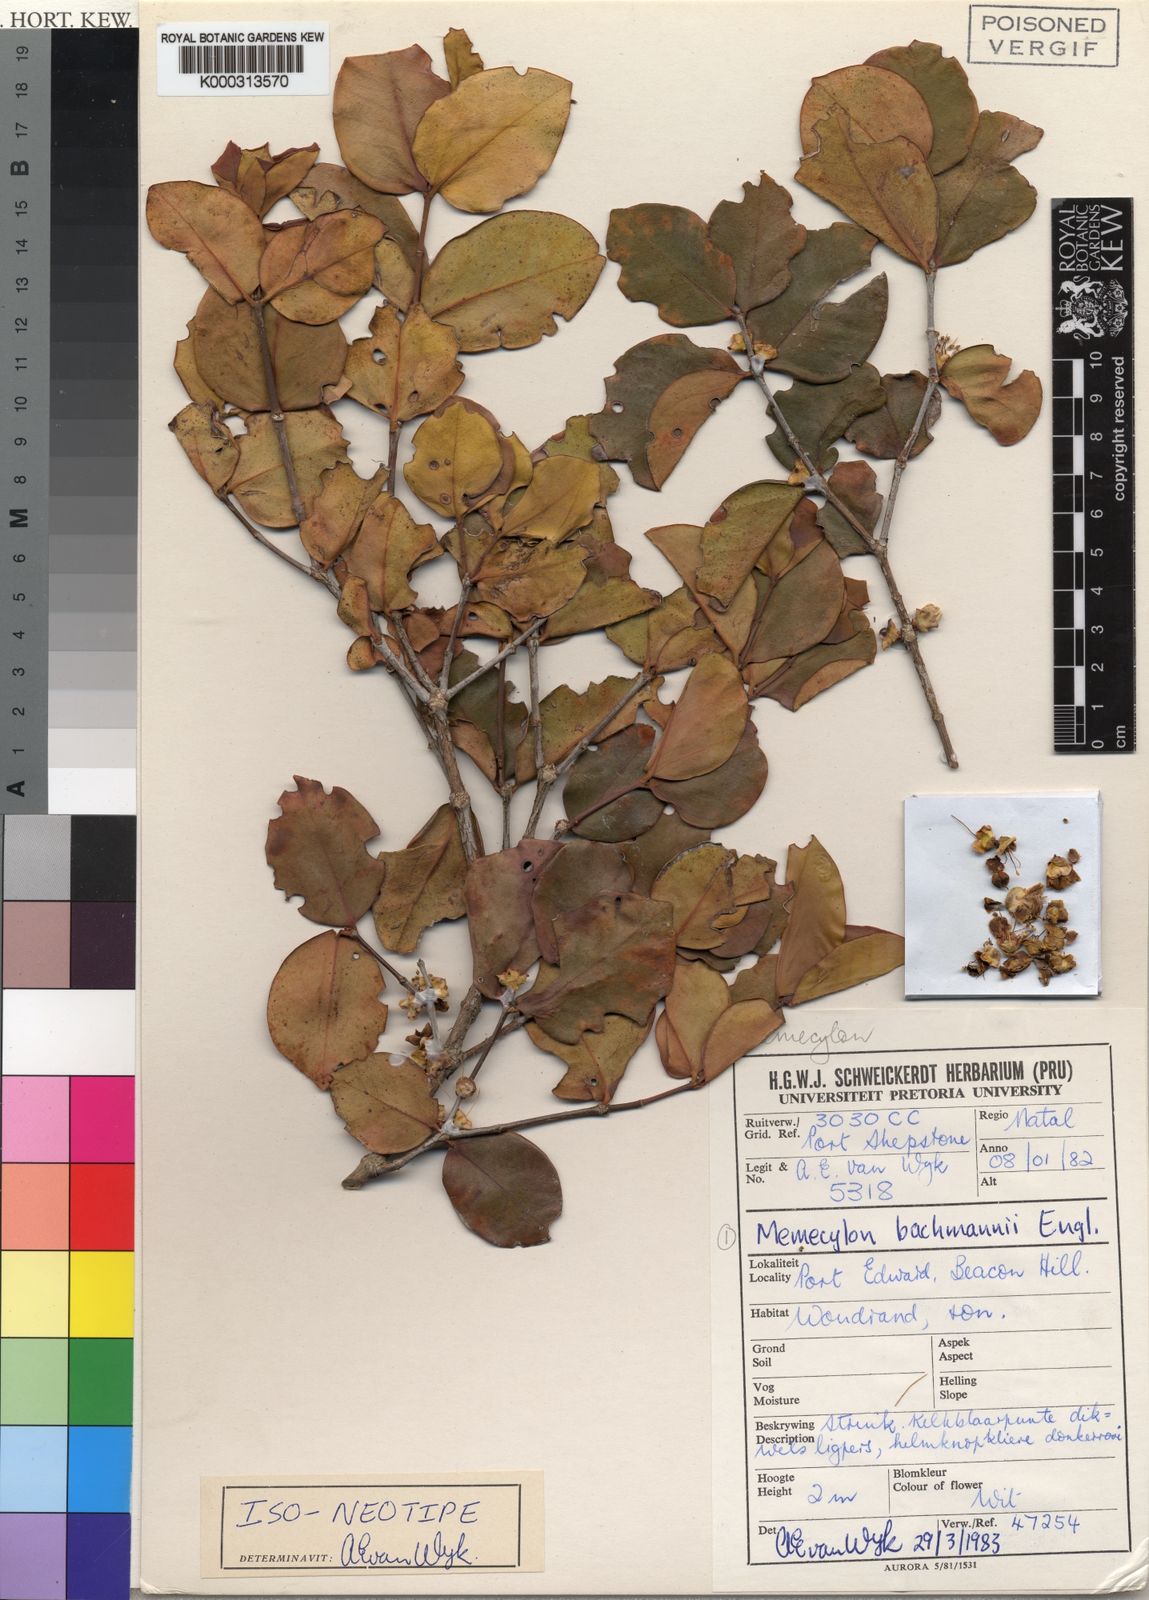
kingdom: Plantae
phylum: Tracheophyta
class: Magnoliopsida
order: Myrtales
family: Melastomataceae
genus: Memecylon
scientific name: Memecylon bachmannii
